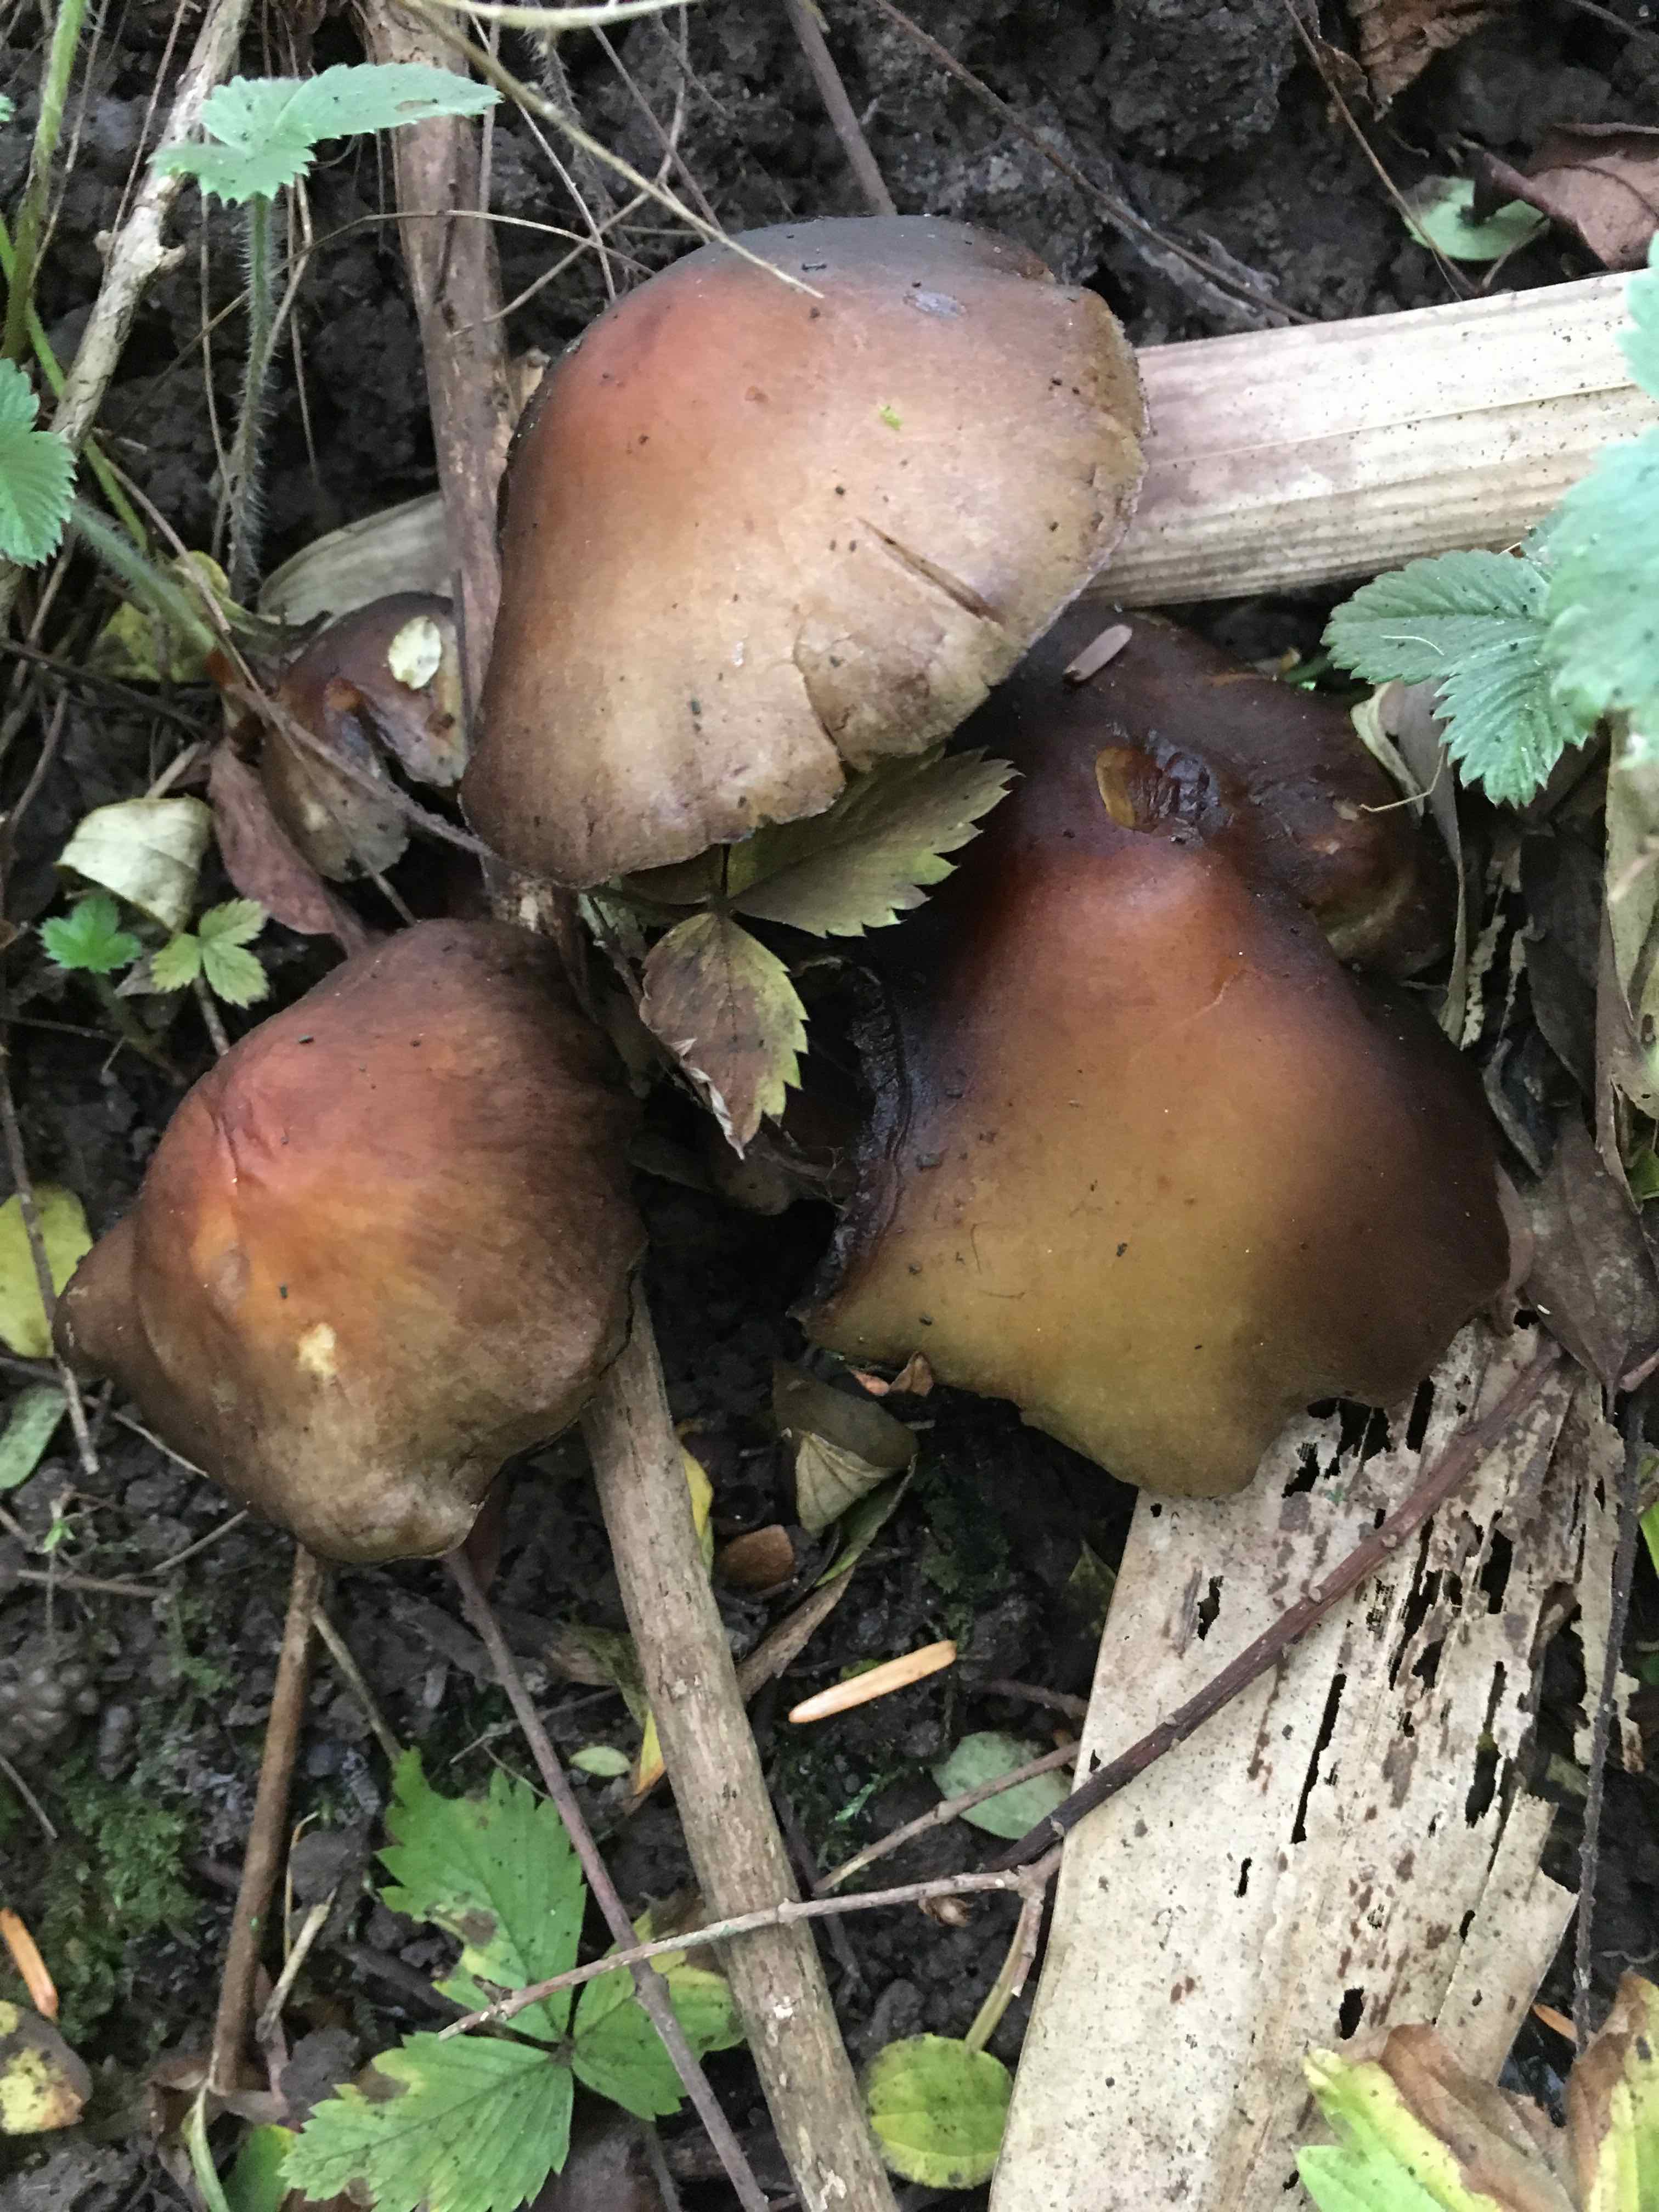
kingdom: Fungi
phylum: Basidiomycota
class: Agaricomycetes
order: Agaricales
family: Strophariaceae
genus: Hypholoma
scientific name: Hypholoma fasciculare
